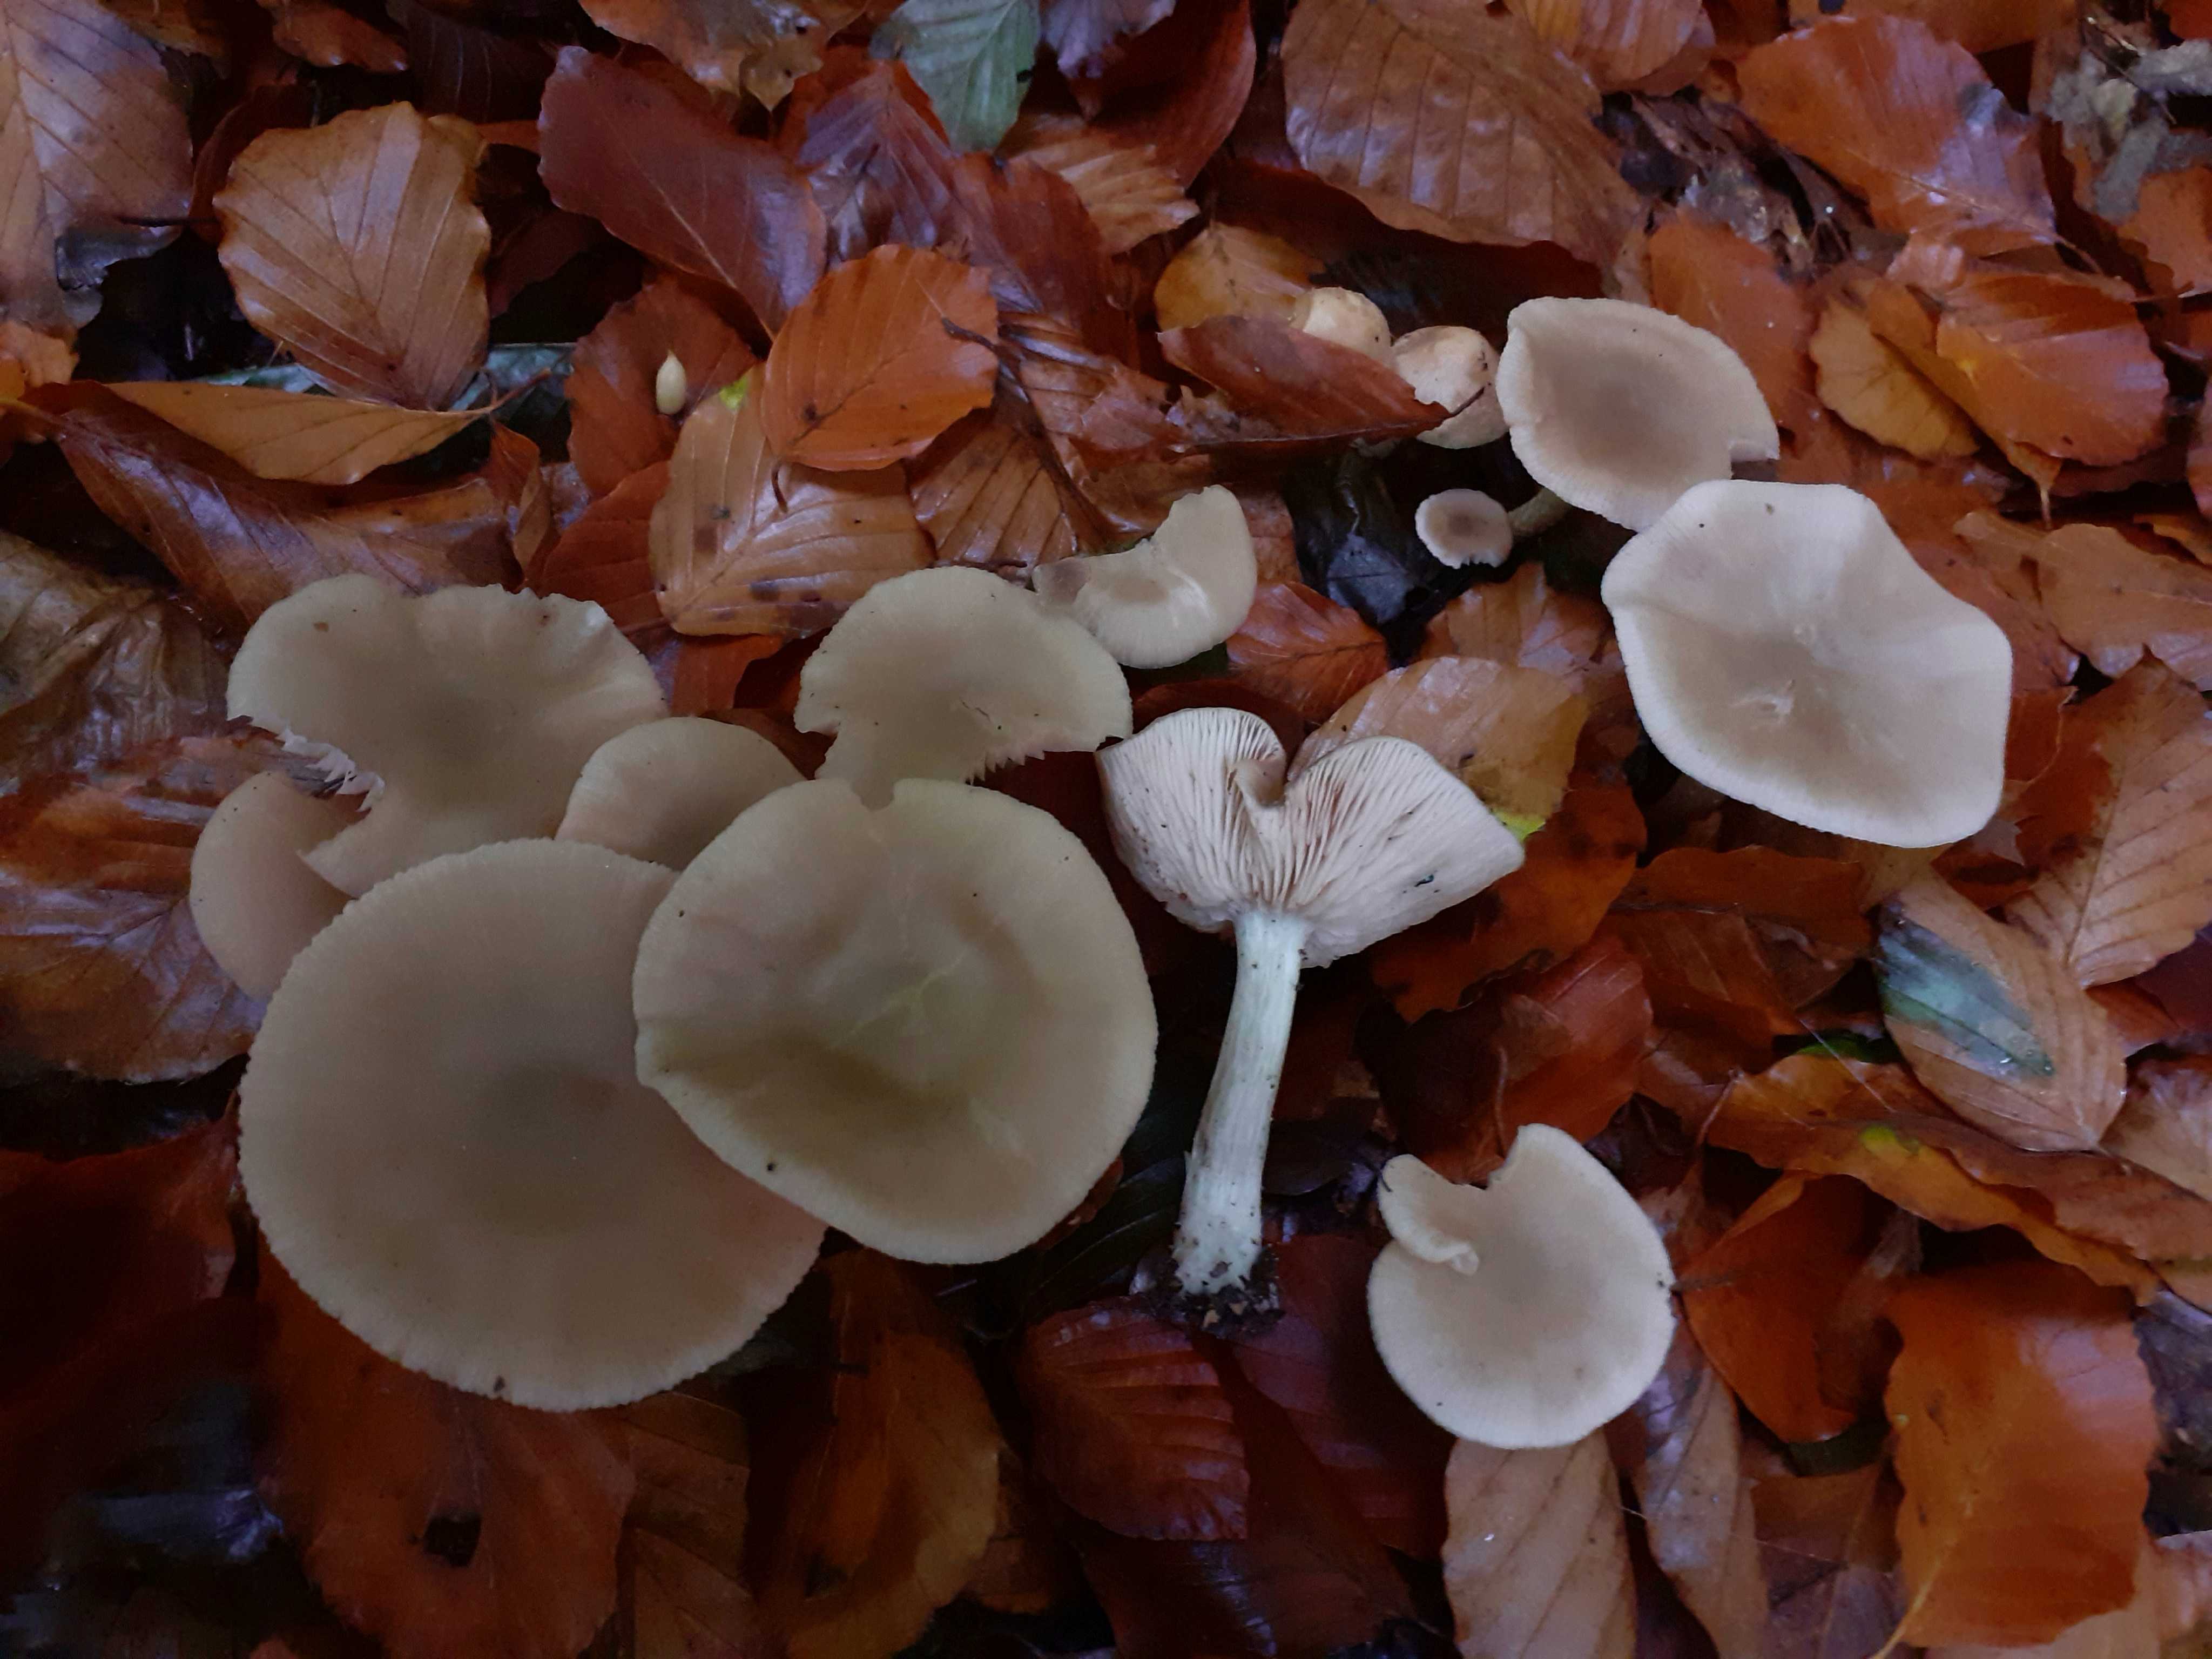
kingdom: Fungi
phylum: Basidiomycota
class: Agaricomycetes
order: Agaricales
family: Entolomataceae
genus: Entoloma
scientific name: Entoloma rhodopolium
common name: skov-rødblad
